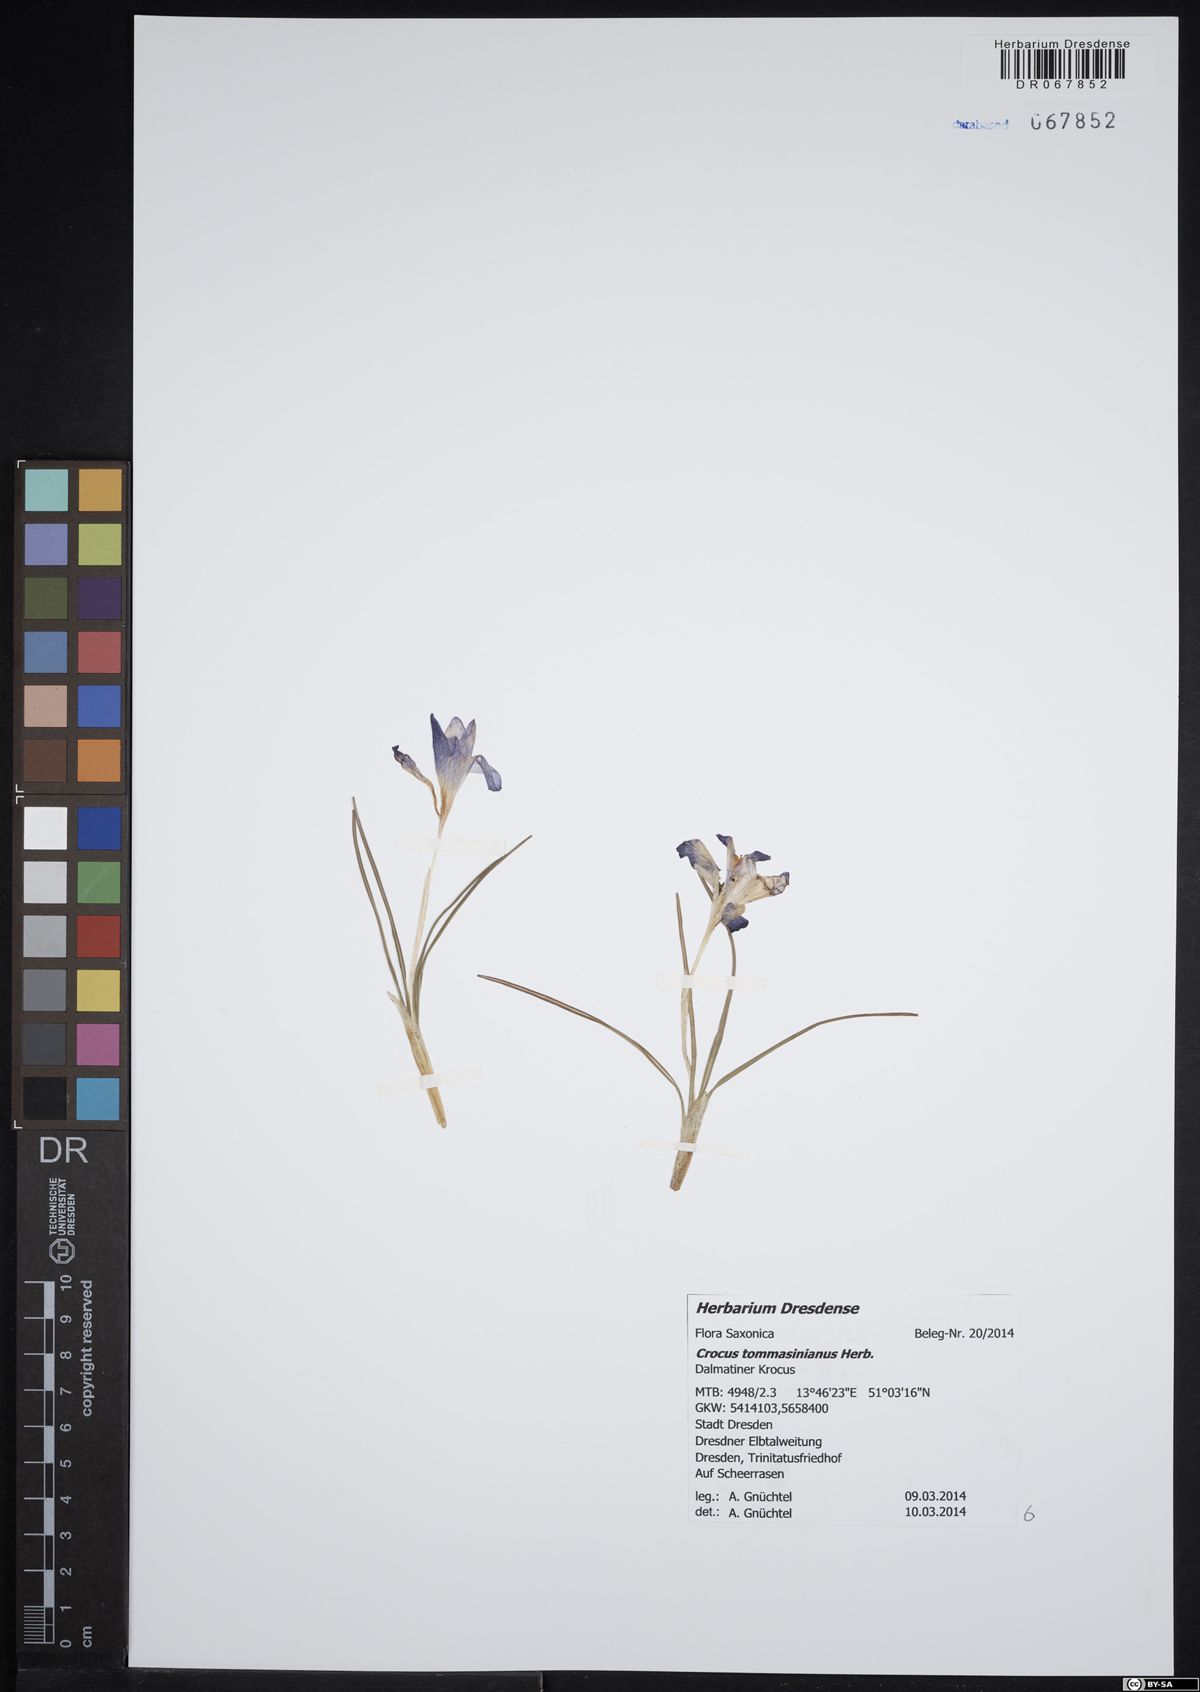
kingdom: Plantae
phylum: Tracheophyta
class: Liliopsida
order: Asparagales
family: Iridaceae
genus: Crocus
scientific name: Crocus tommasinianus
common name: Early crocus
